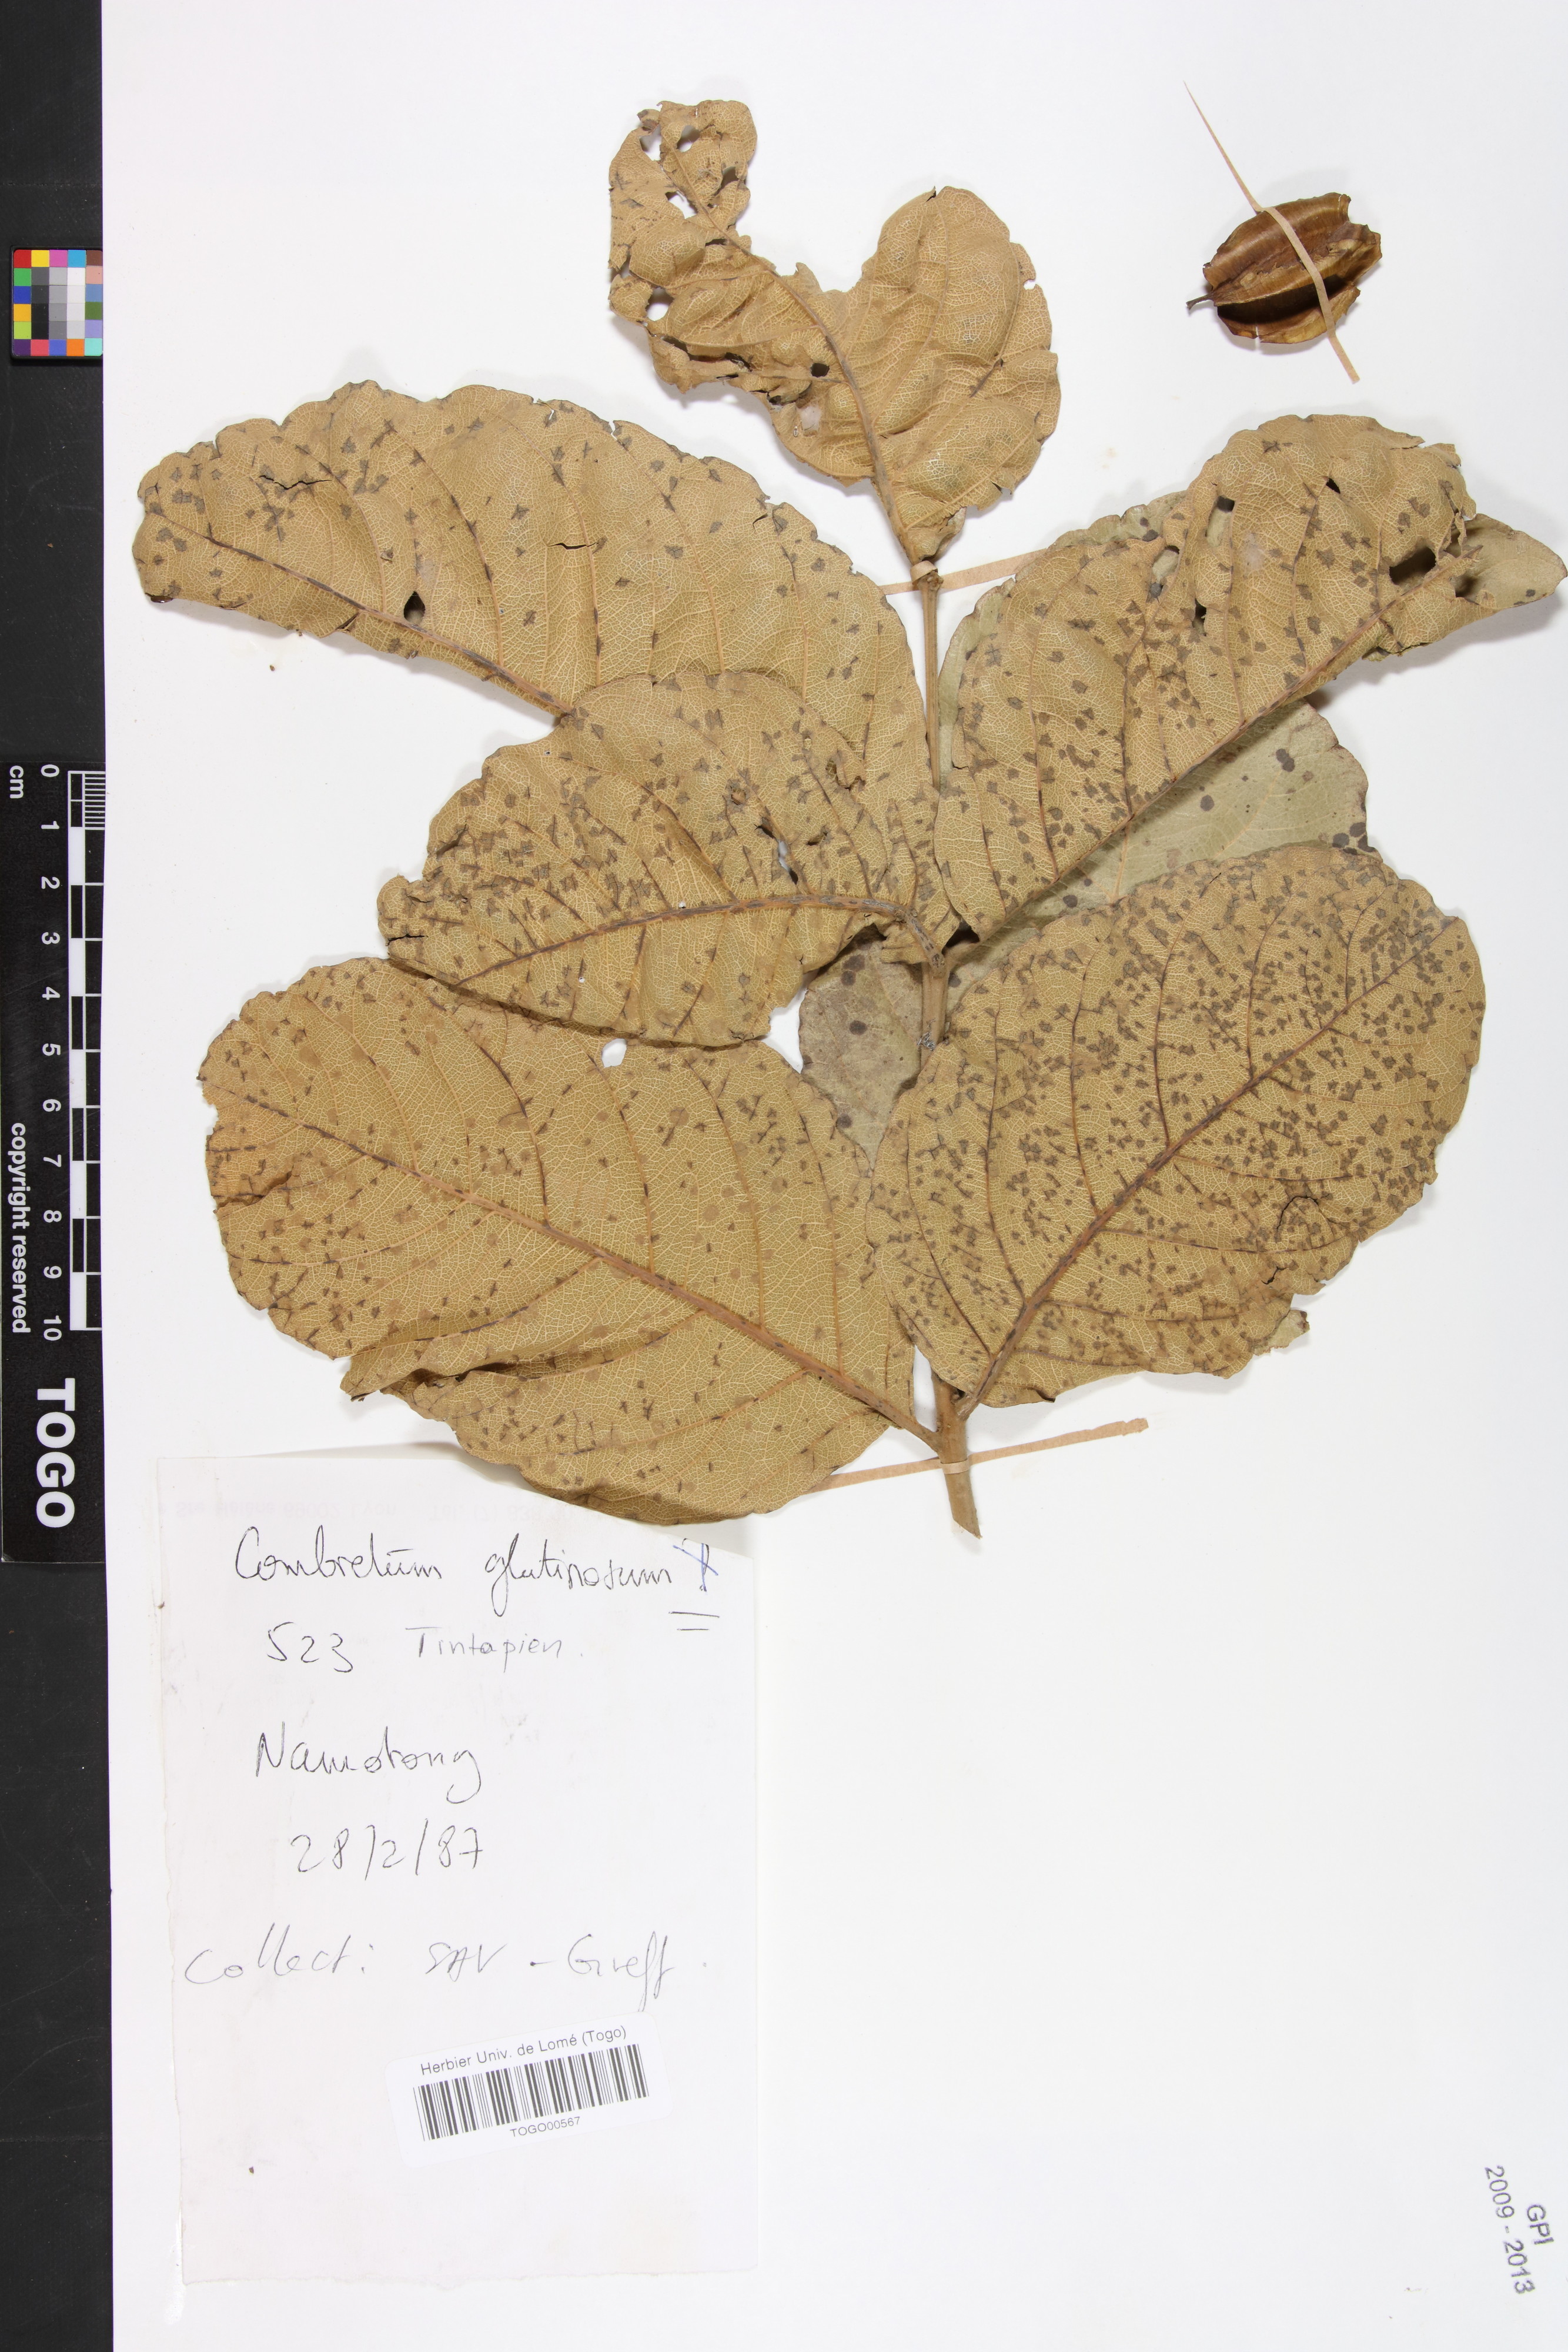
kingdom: Plantae
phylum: Tracheophyta
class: Magnoliopsida
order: Myrtales
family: Combretaceae
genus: Combretum
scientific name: Combretum glutinosum
